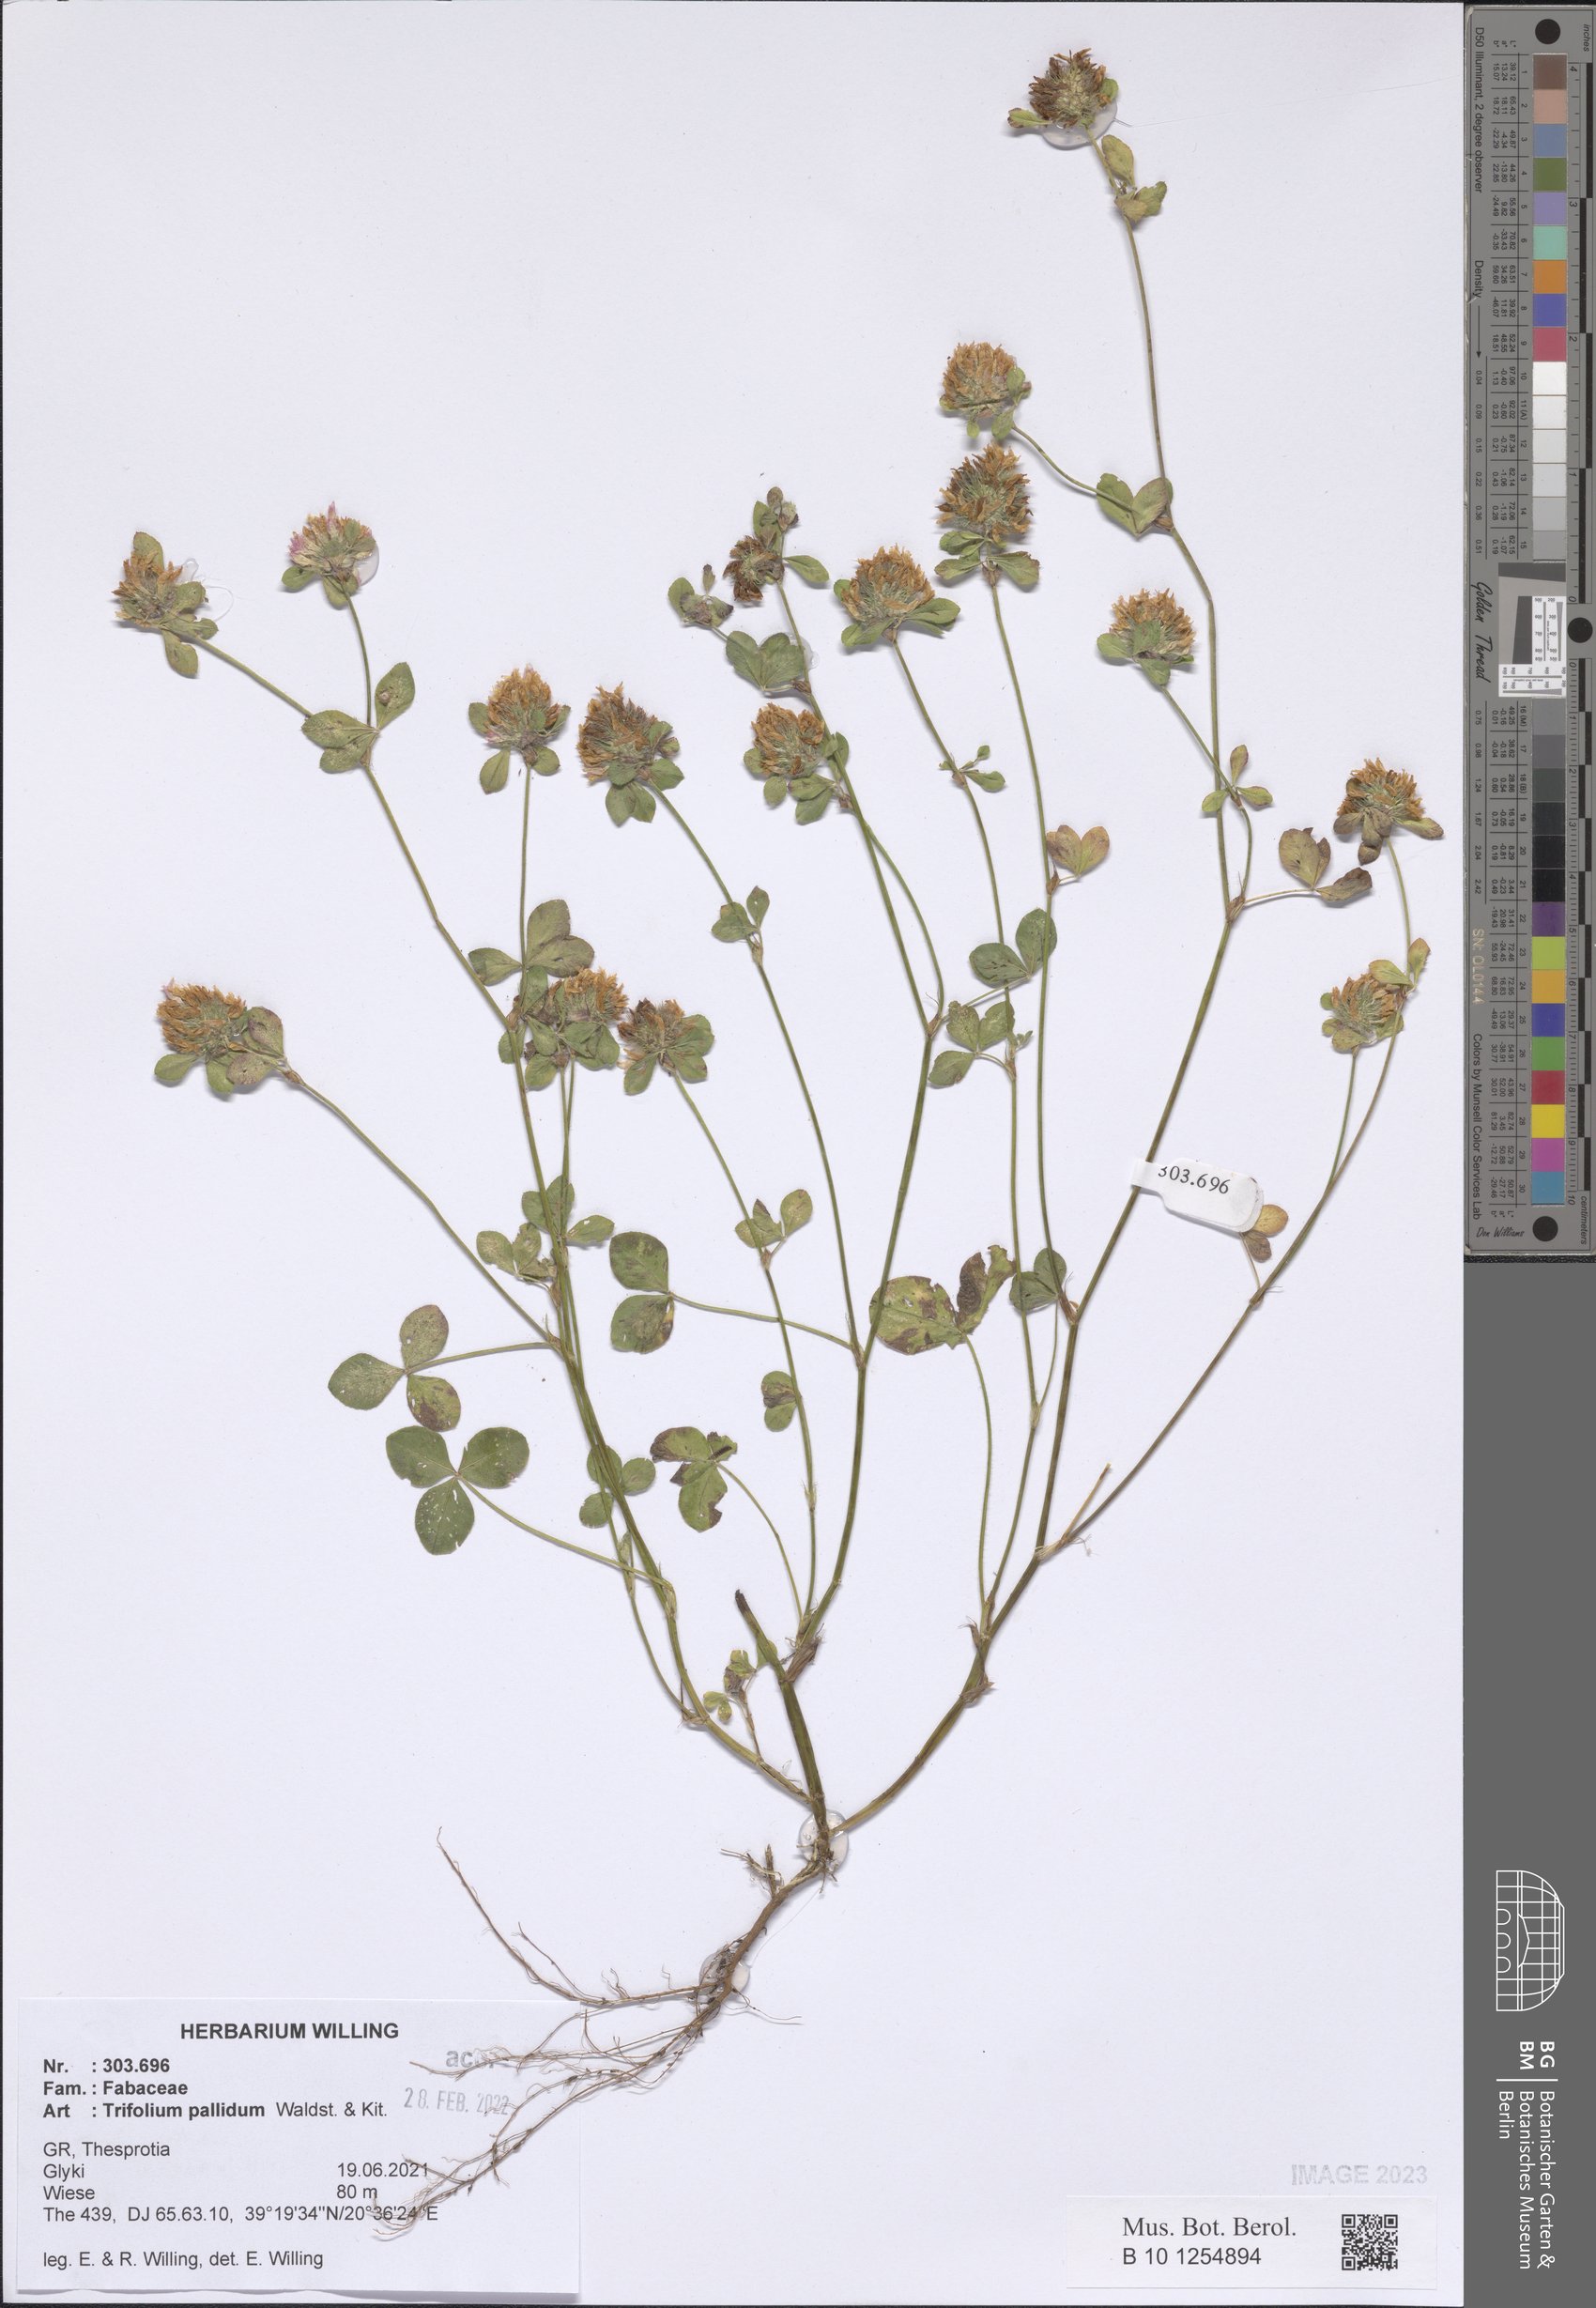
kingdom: Plantae
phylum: Tracheophyta
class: Magnoliopsida
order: Fabales
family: Fabaceae
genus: Trifolium
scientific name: Trifolium pallidum
